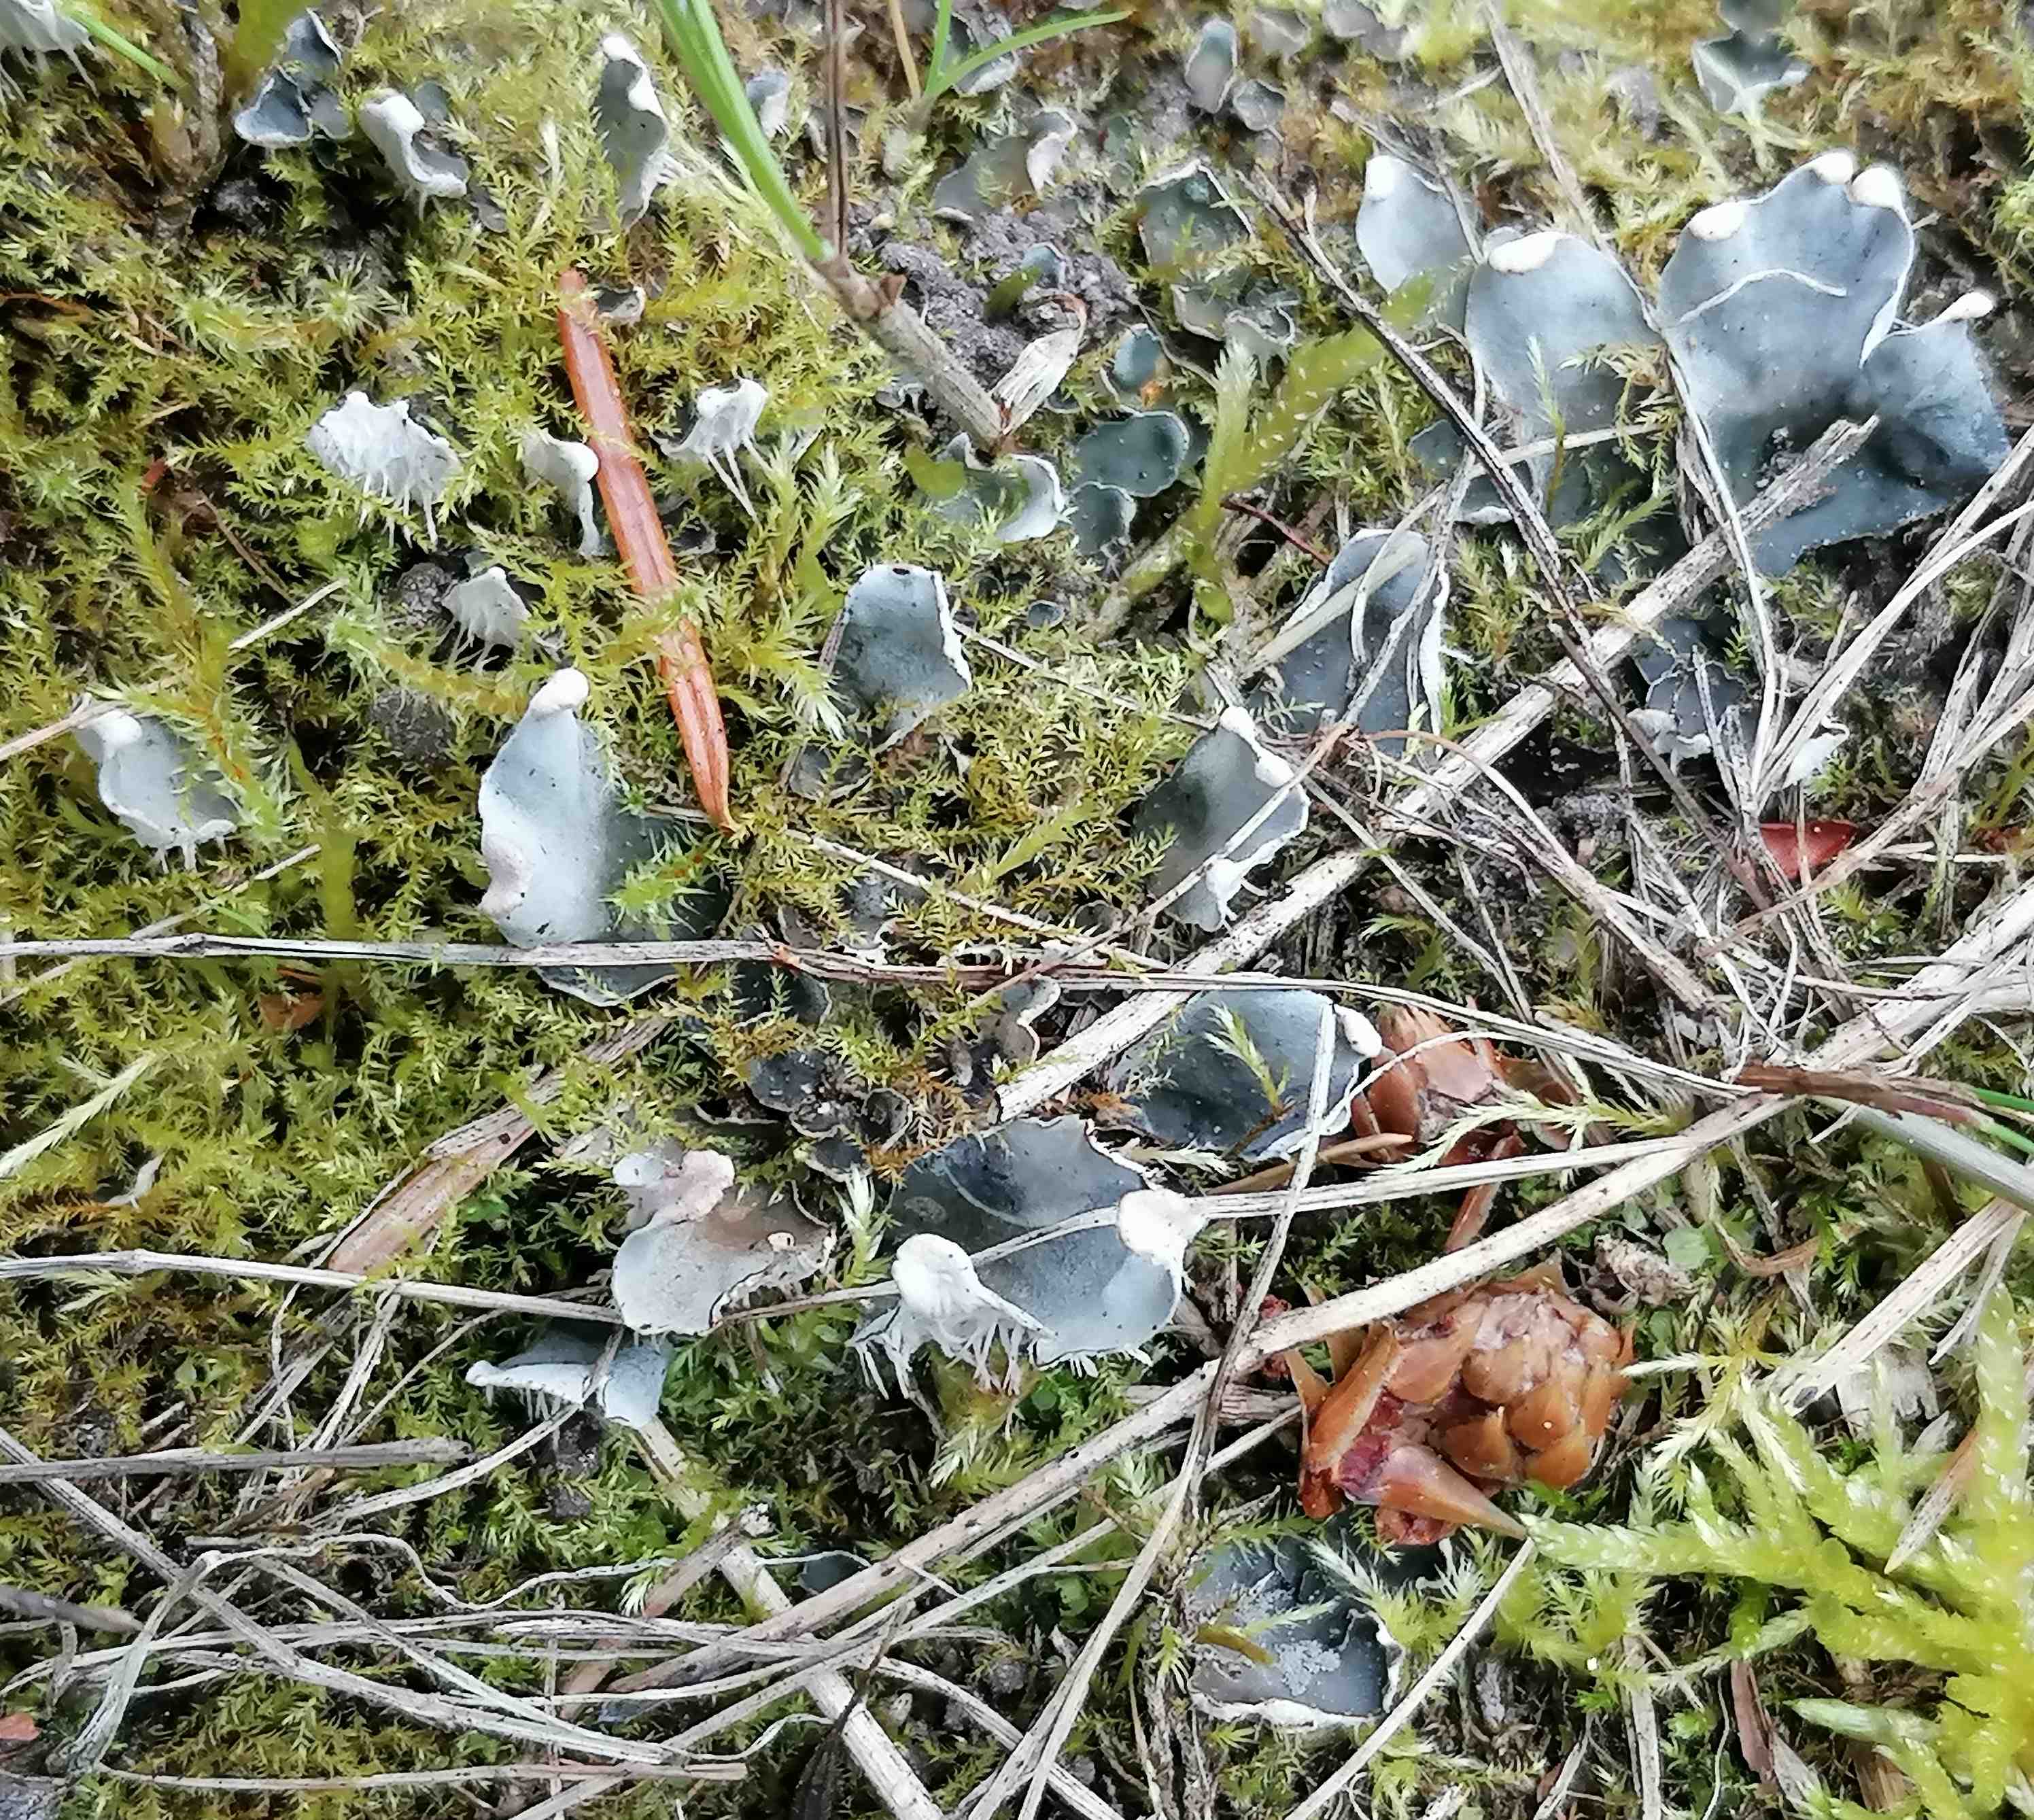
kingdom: Fungi
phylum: Ascomycota
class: Lecanoromycetes
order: Peltigerales
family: Peltigeraceae
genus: Peltigera
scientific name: Peltigera didactyla
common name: liden skjoldlav
